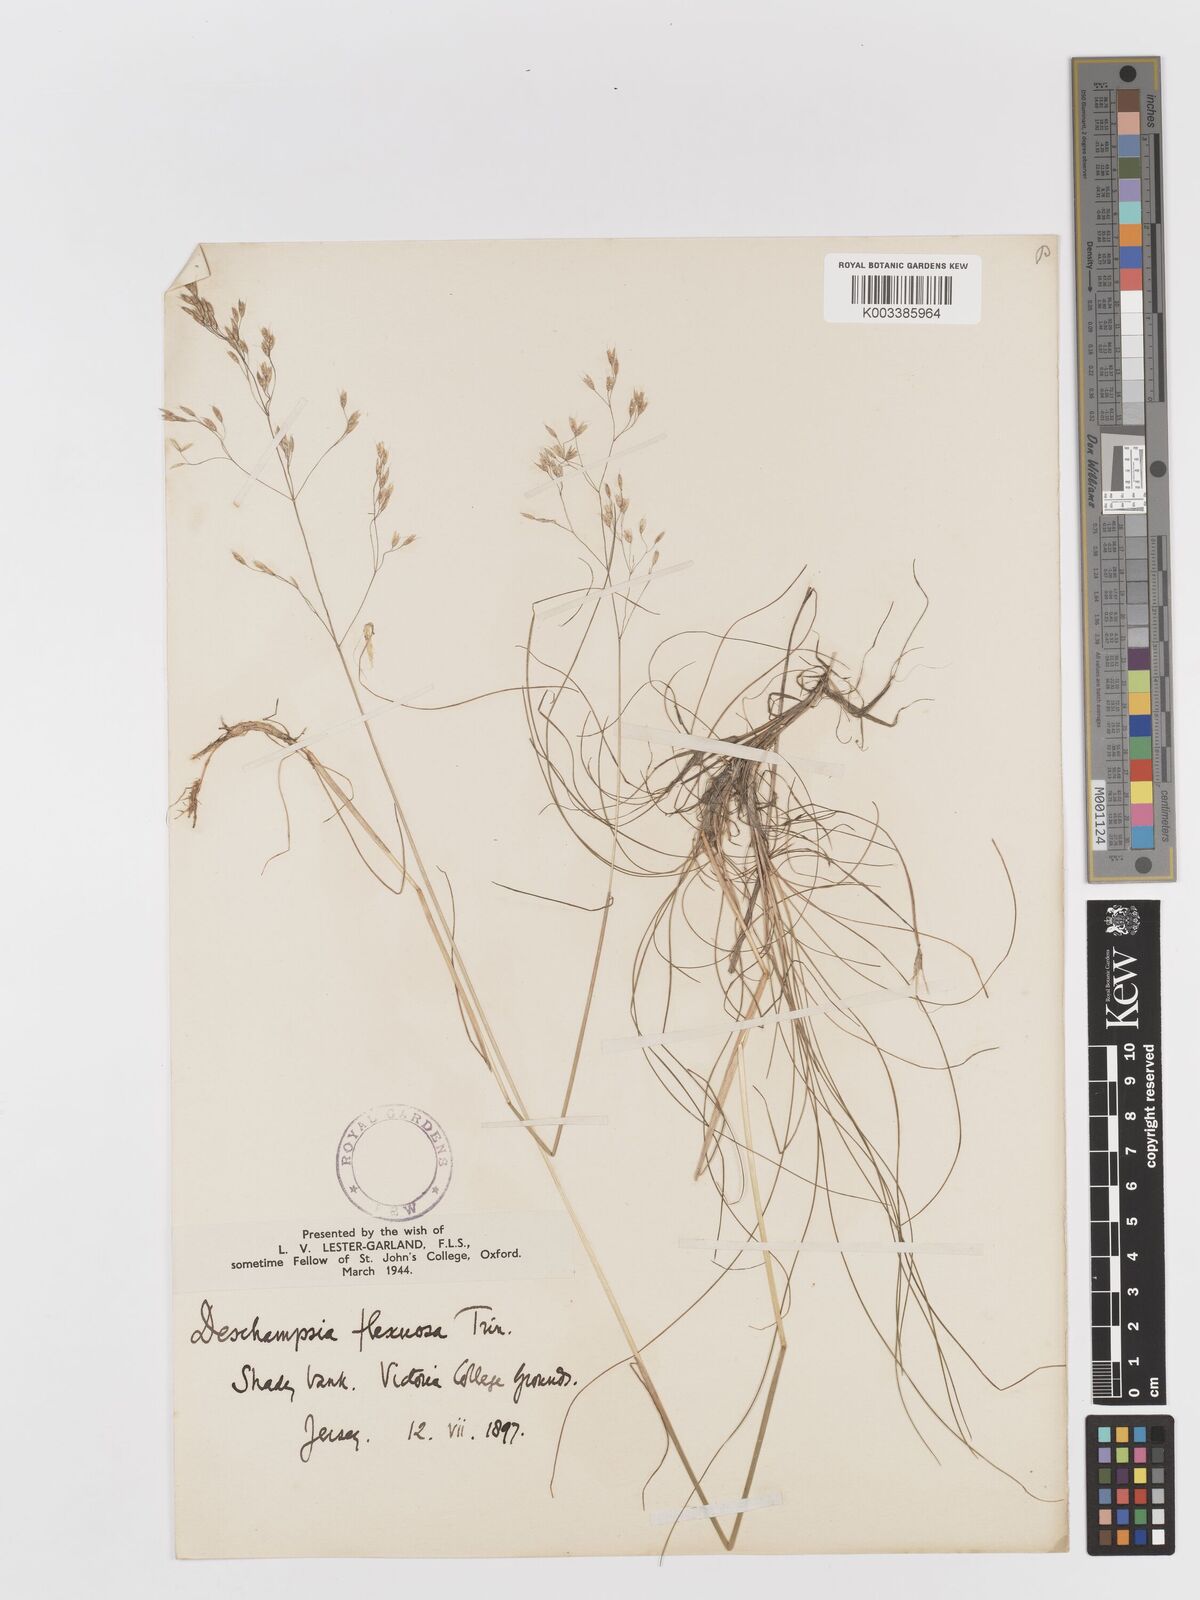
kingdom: Plantae
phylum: Tracheophyta
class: Liliopsida
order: Poales
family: Poaceae
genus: Avenella
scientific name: Avenella flexuosa
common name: Wavy hairgrass
